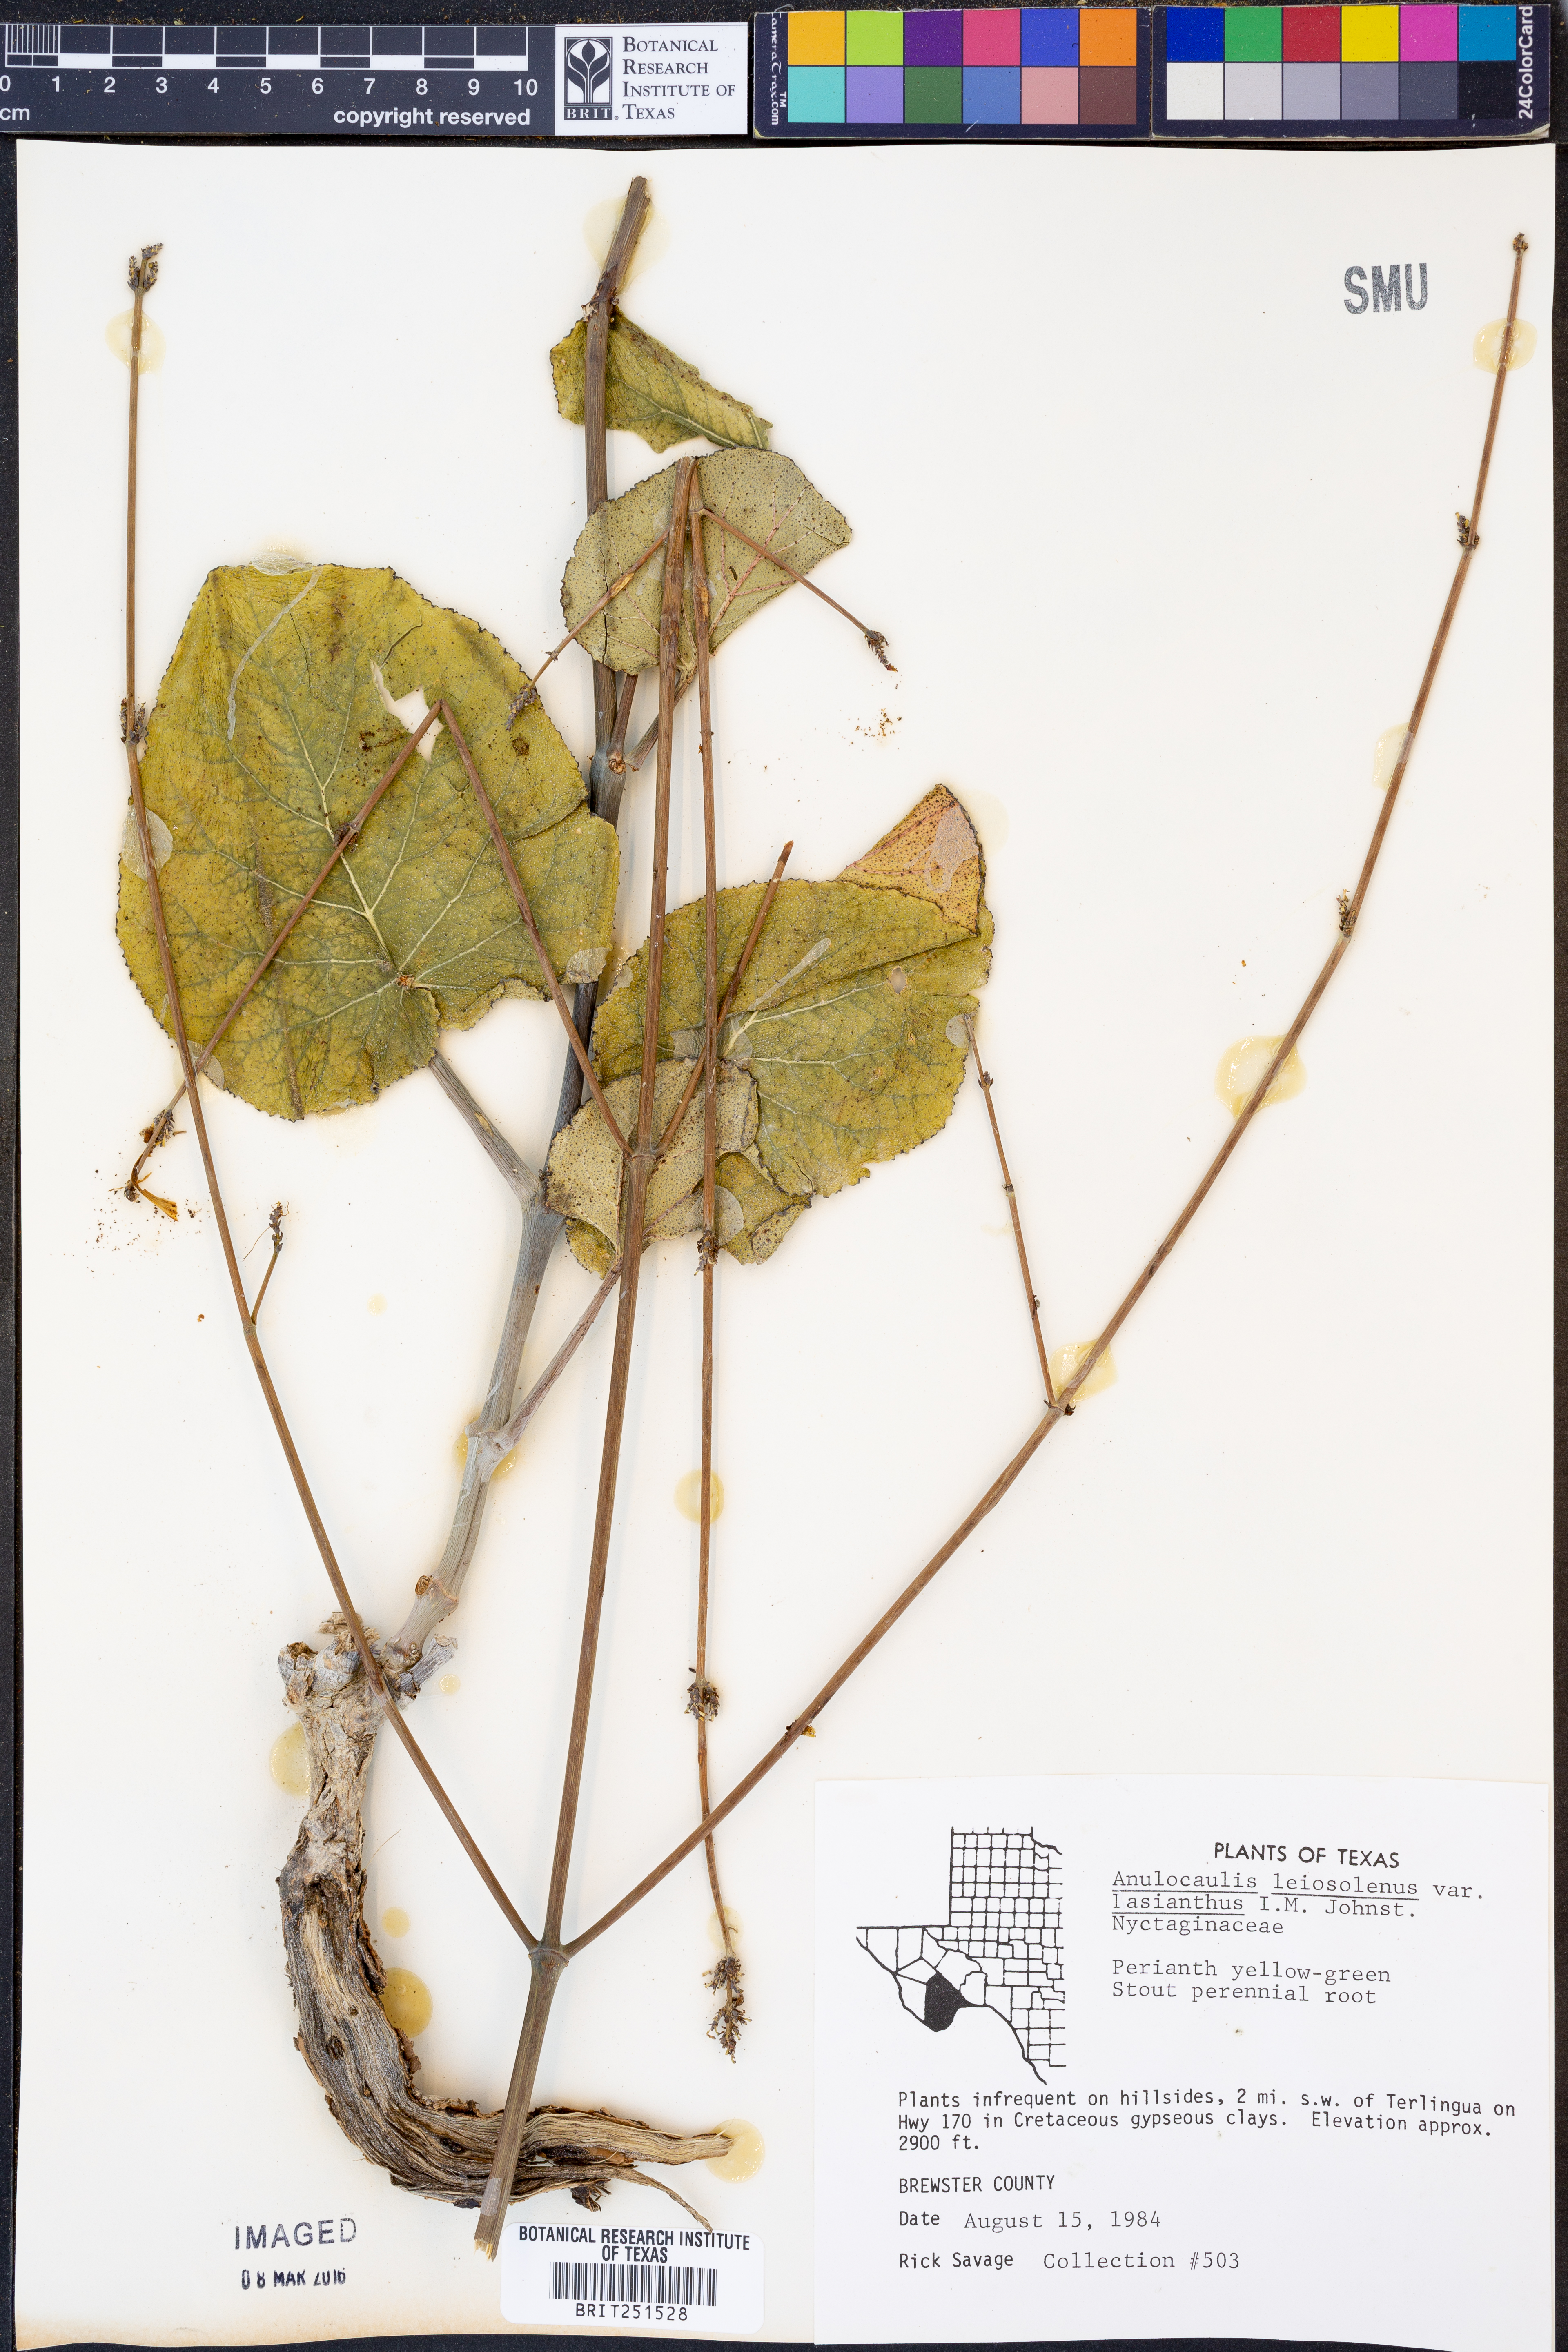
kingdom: Plantae
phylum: Tracheophyta
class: Magnoliopsida
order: Caryophyllales
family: Nyctaginaceae
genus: Anulocaulis
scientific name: Anulocaulis leiosolenus
